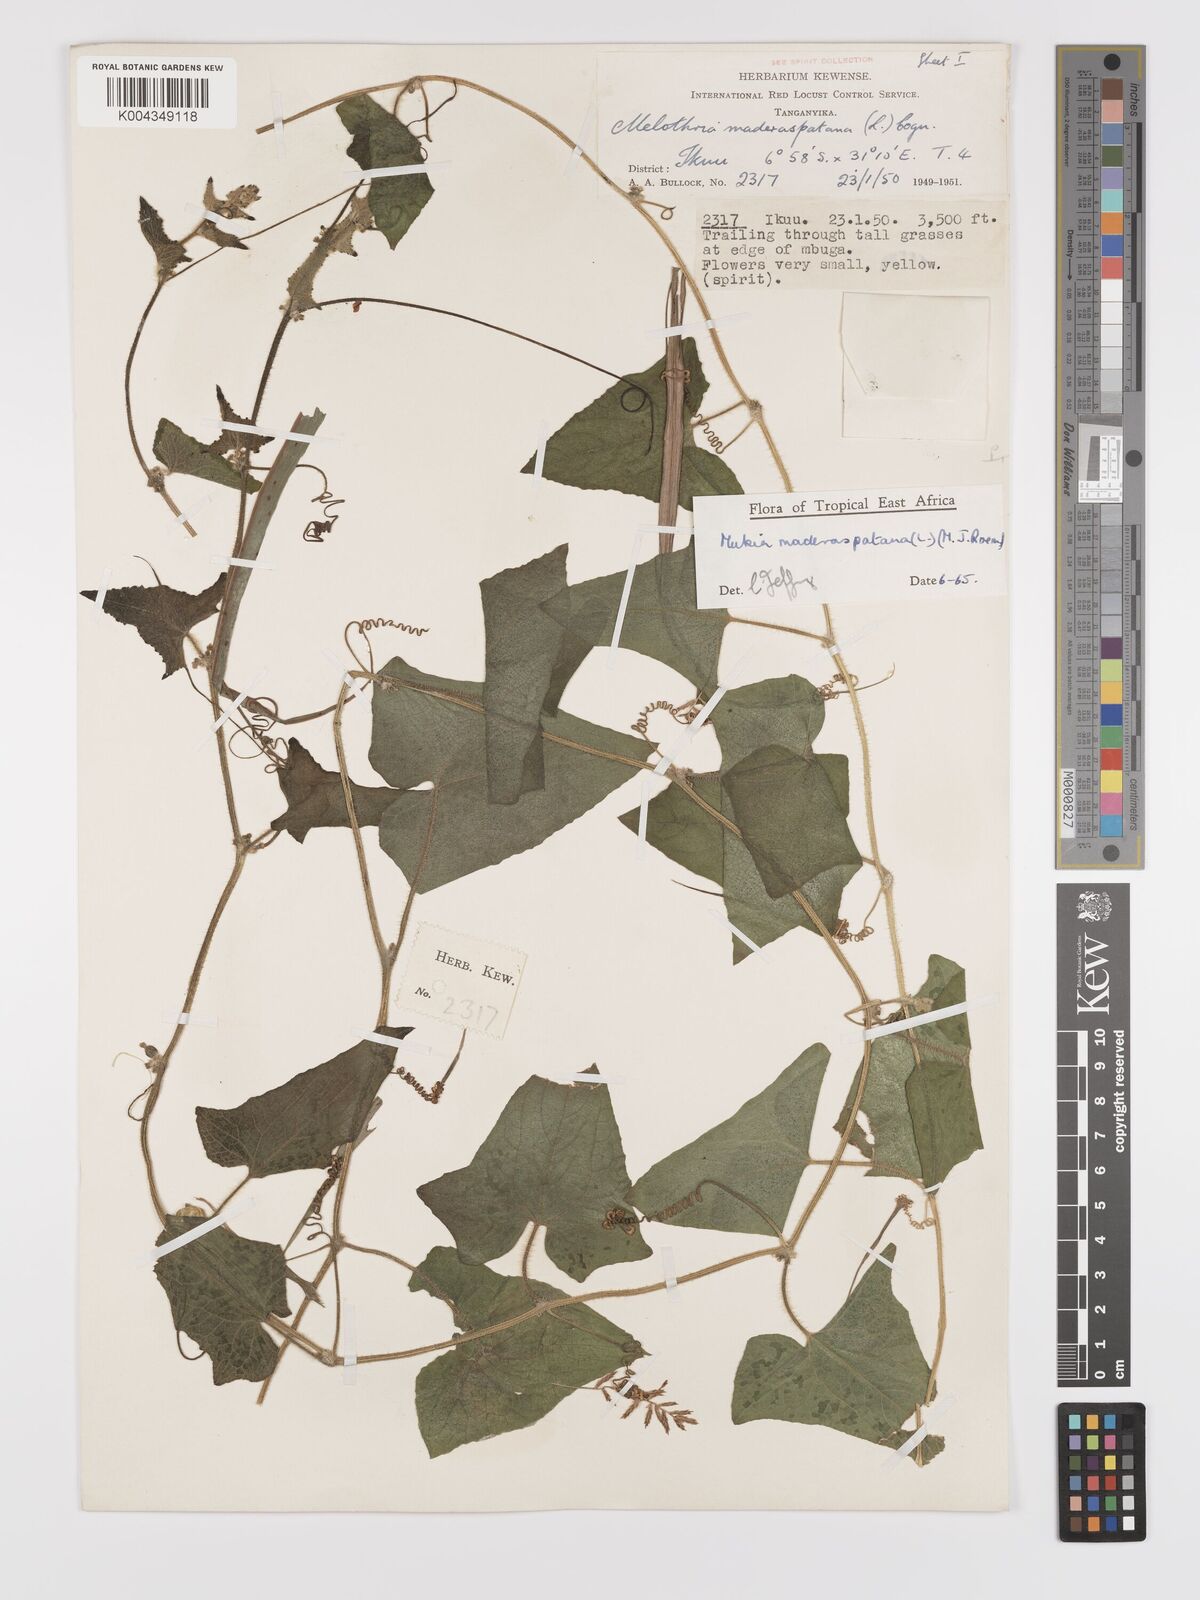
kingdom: Plantae
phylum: Tracheophyta
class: Magnoliopsida
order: Cucurbitales
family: Cucurbitaceae
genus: Cucumis
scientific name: Cucumis maderaspatanus
